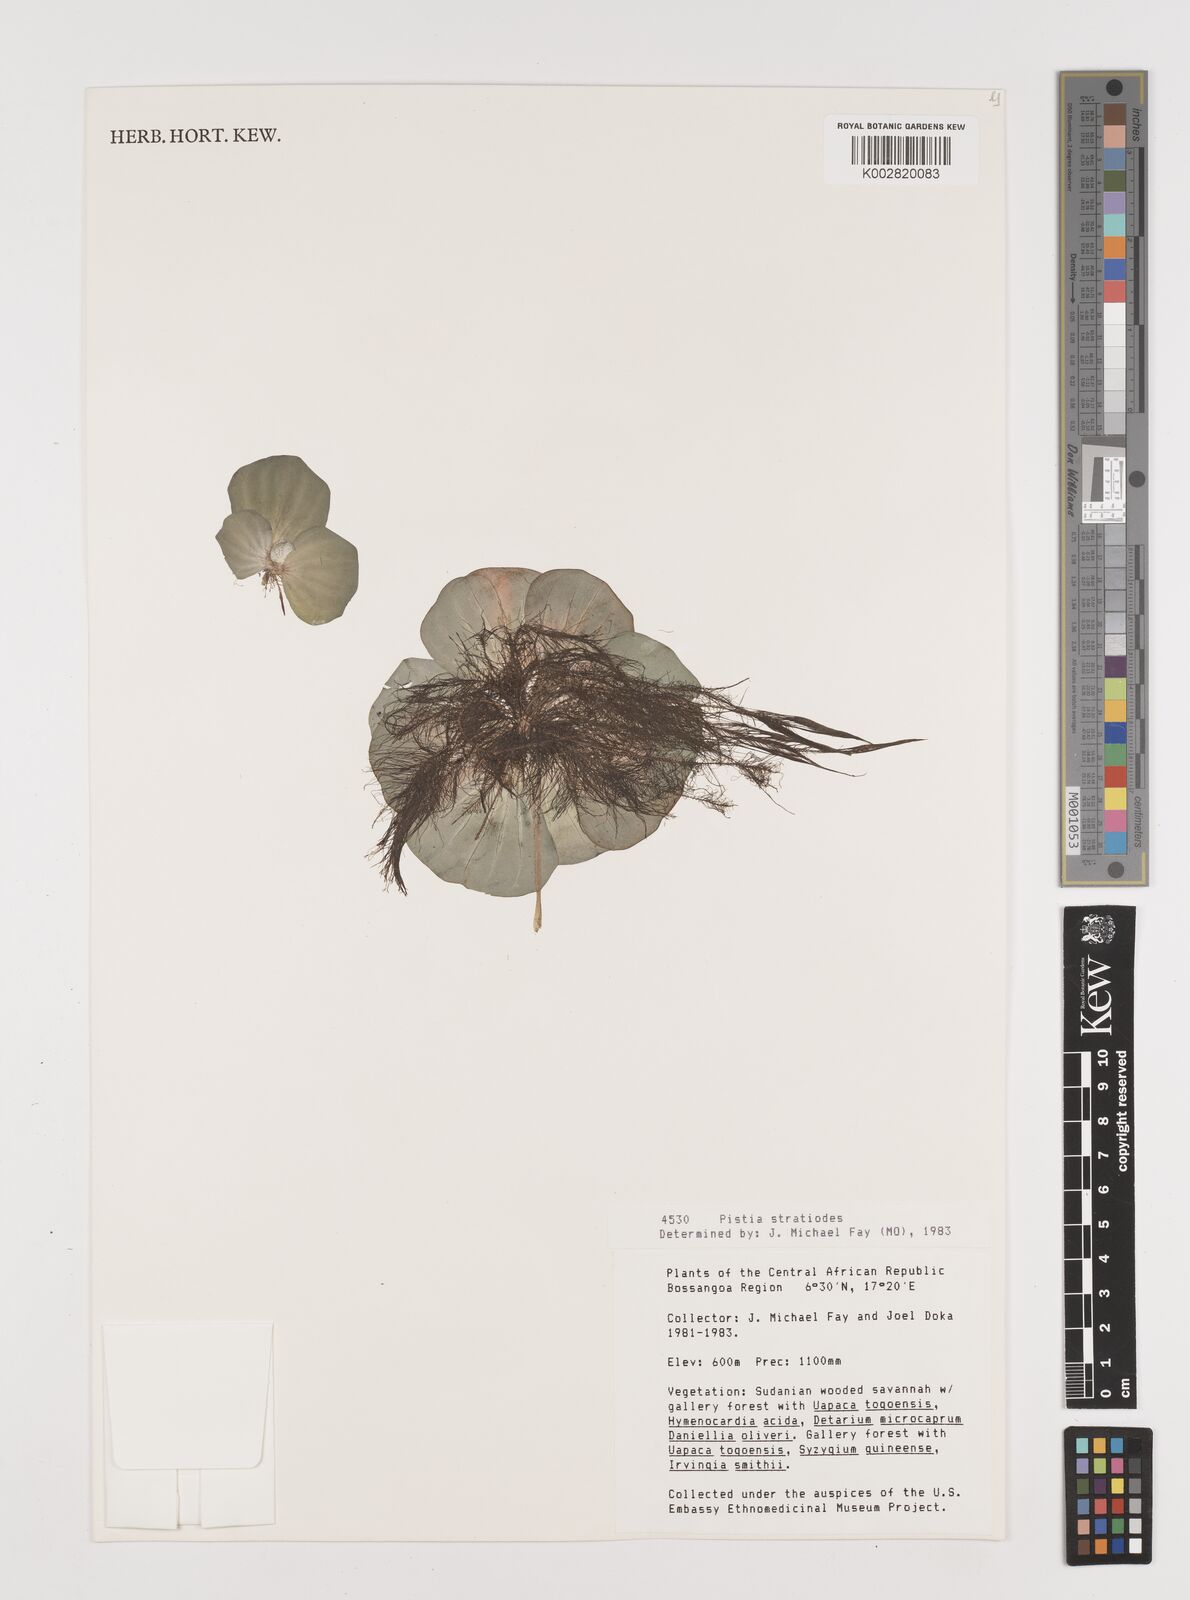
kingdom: Plantae
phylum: Tracheophyta
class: Liliopsida
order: Alismatales
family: Araceae
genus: Pistia
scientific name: Pistia stratiotes
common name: Water lettuce
